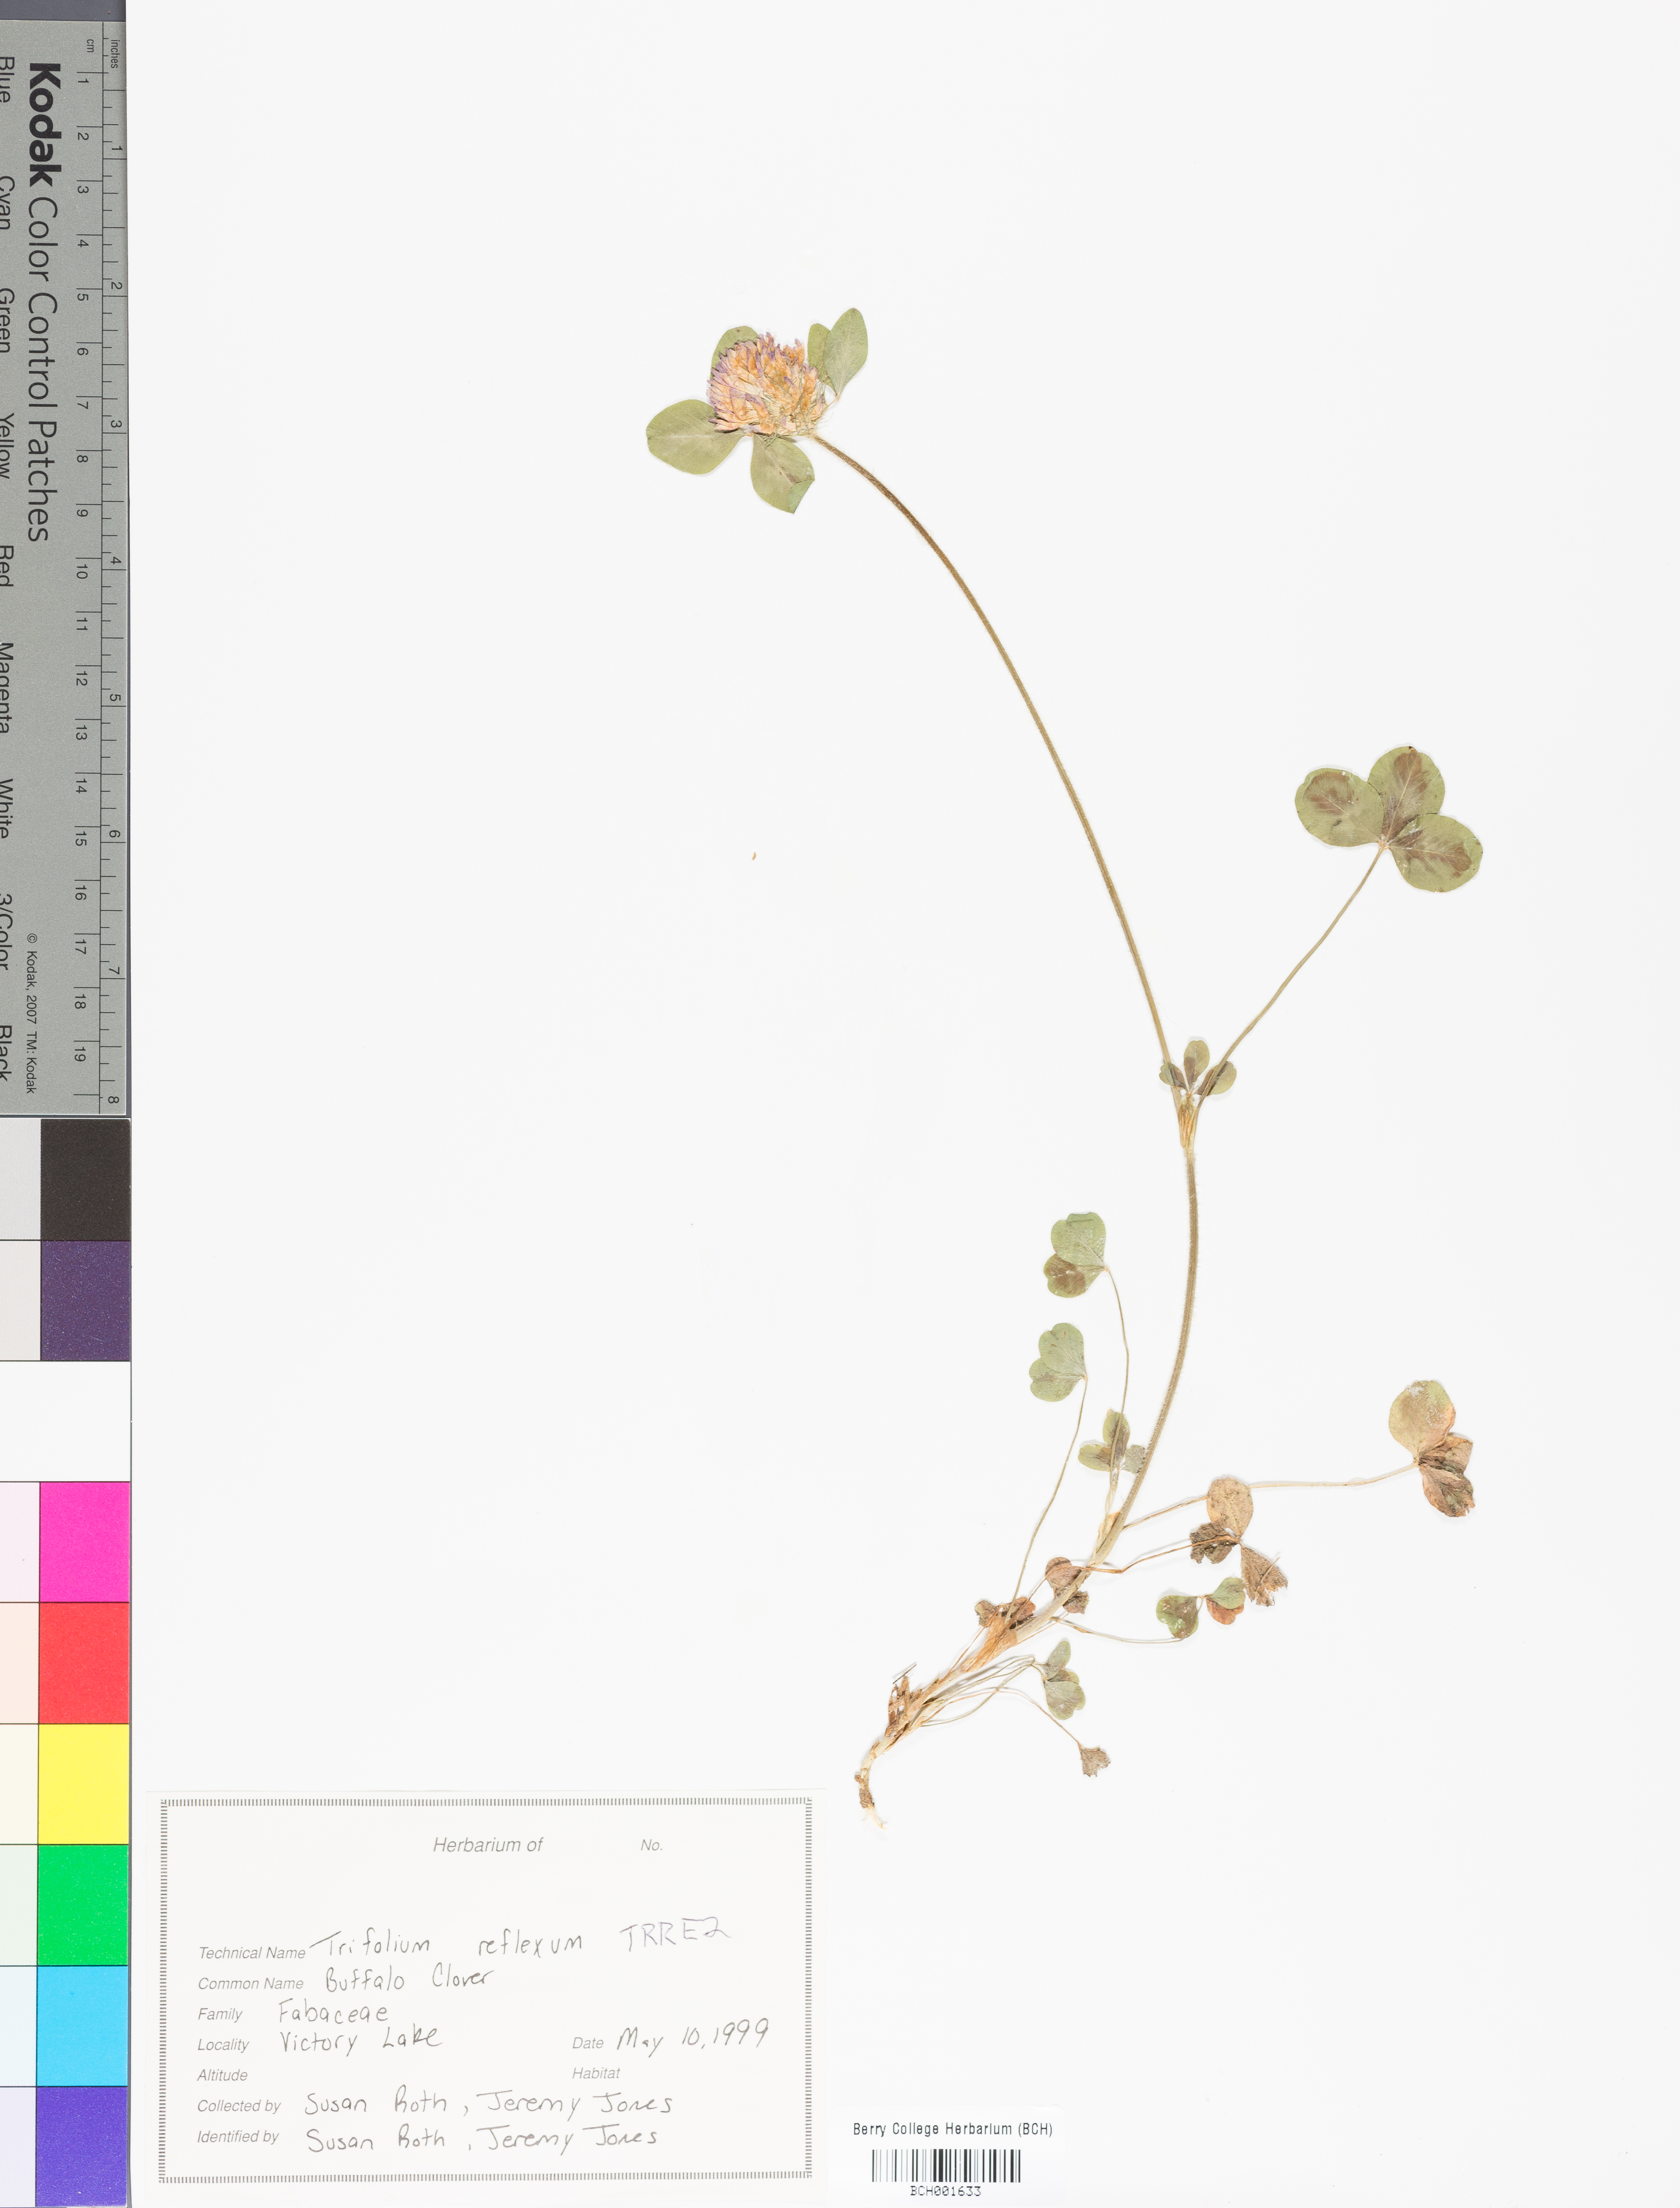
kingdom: Plantae
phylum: Tracheophyta
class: Magnoliopsida
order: Fabales
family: Fabaceae
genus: Trifolium
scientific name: Trifolium reflexum
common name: Buffalo clover
